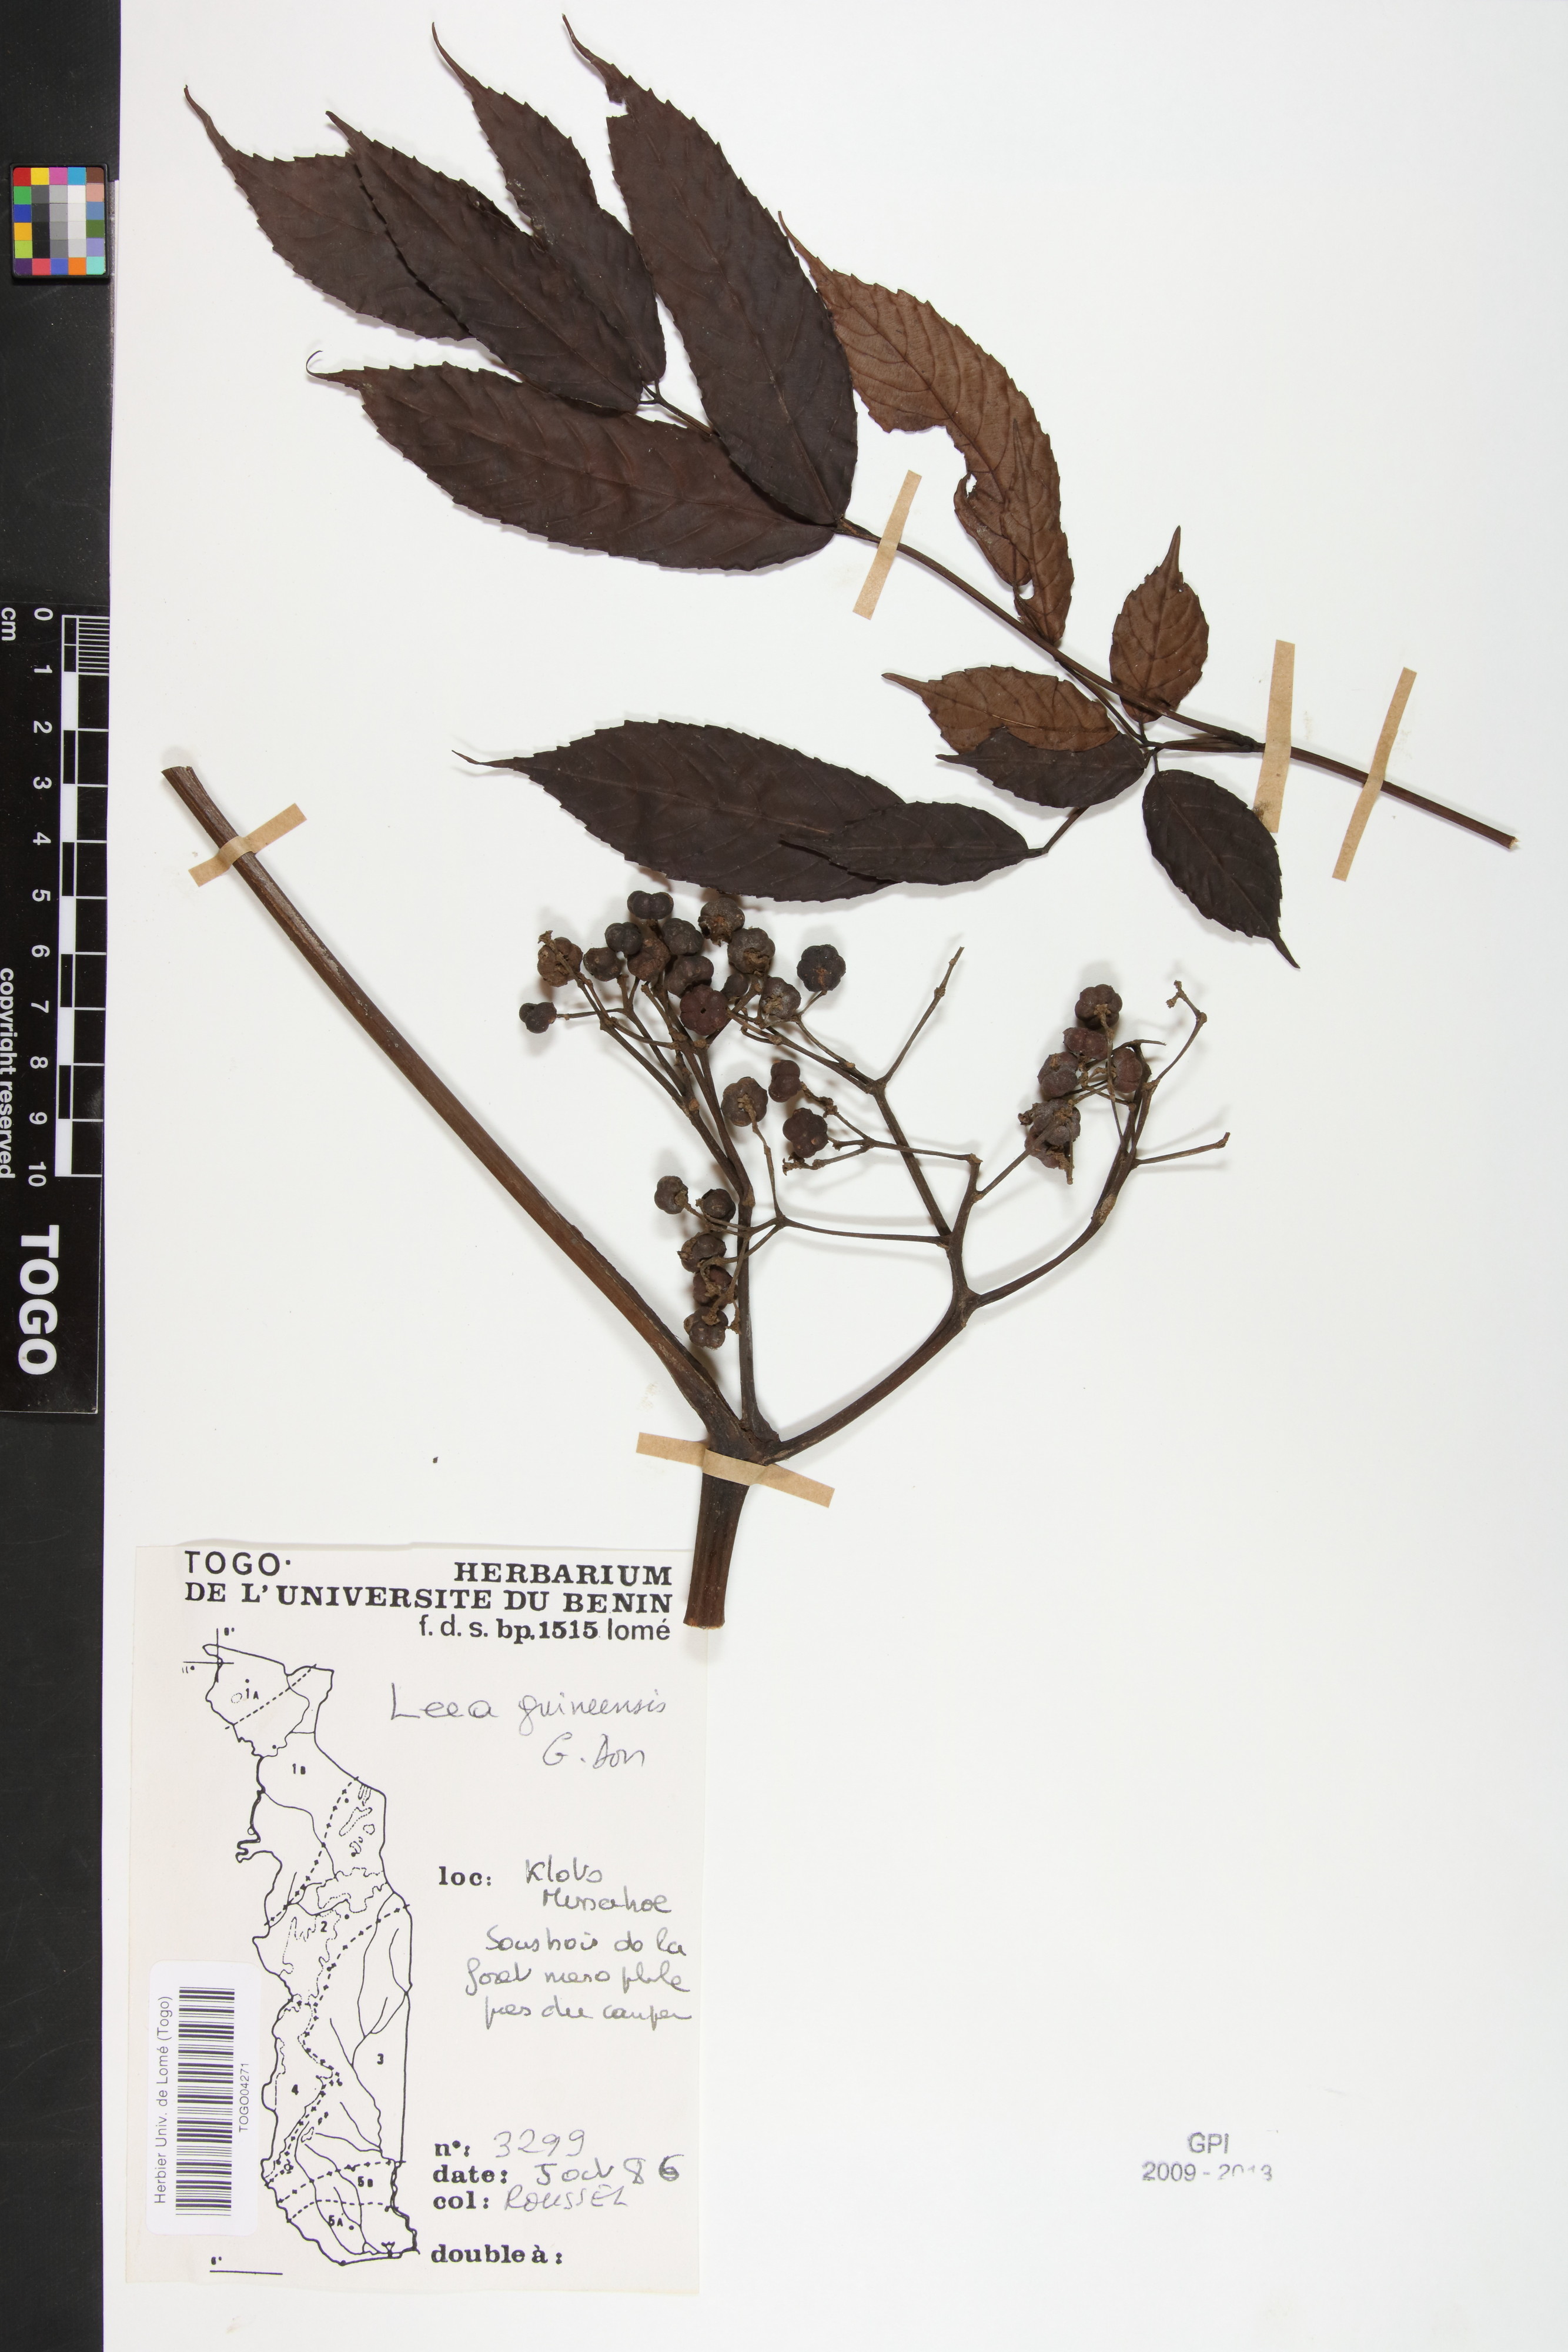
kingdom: Plantae
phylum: Tracheophyta
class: Magnoliopsida
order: Vitales
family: Vitaceae
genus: Leea
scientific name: Leea guineensis
